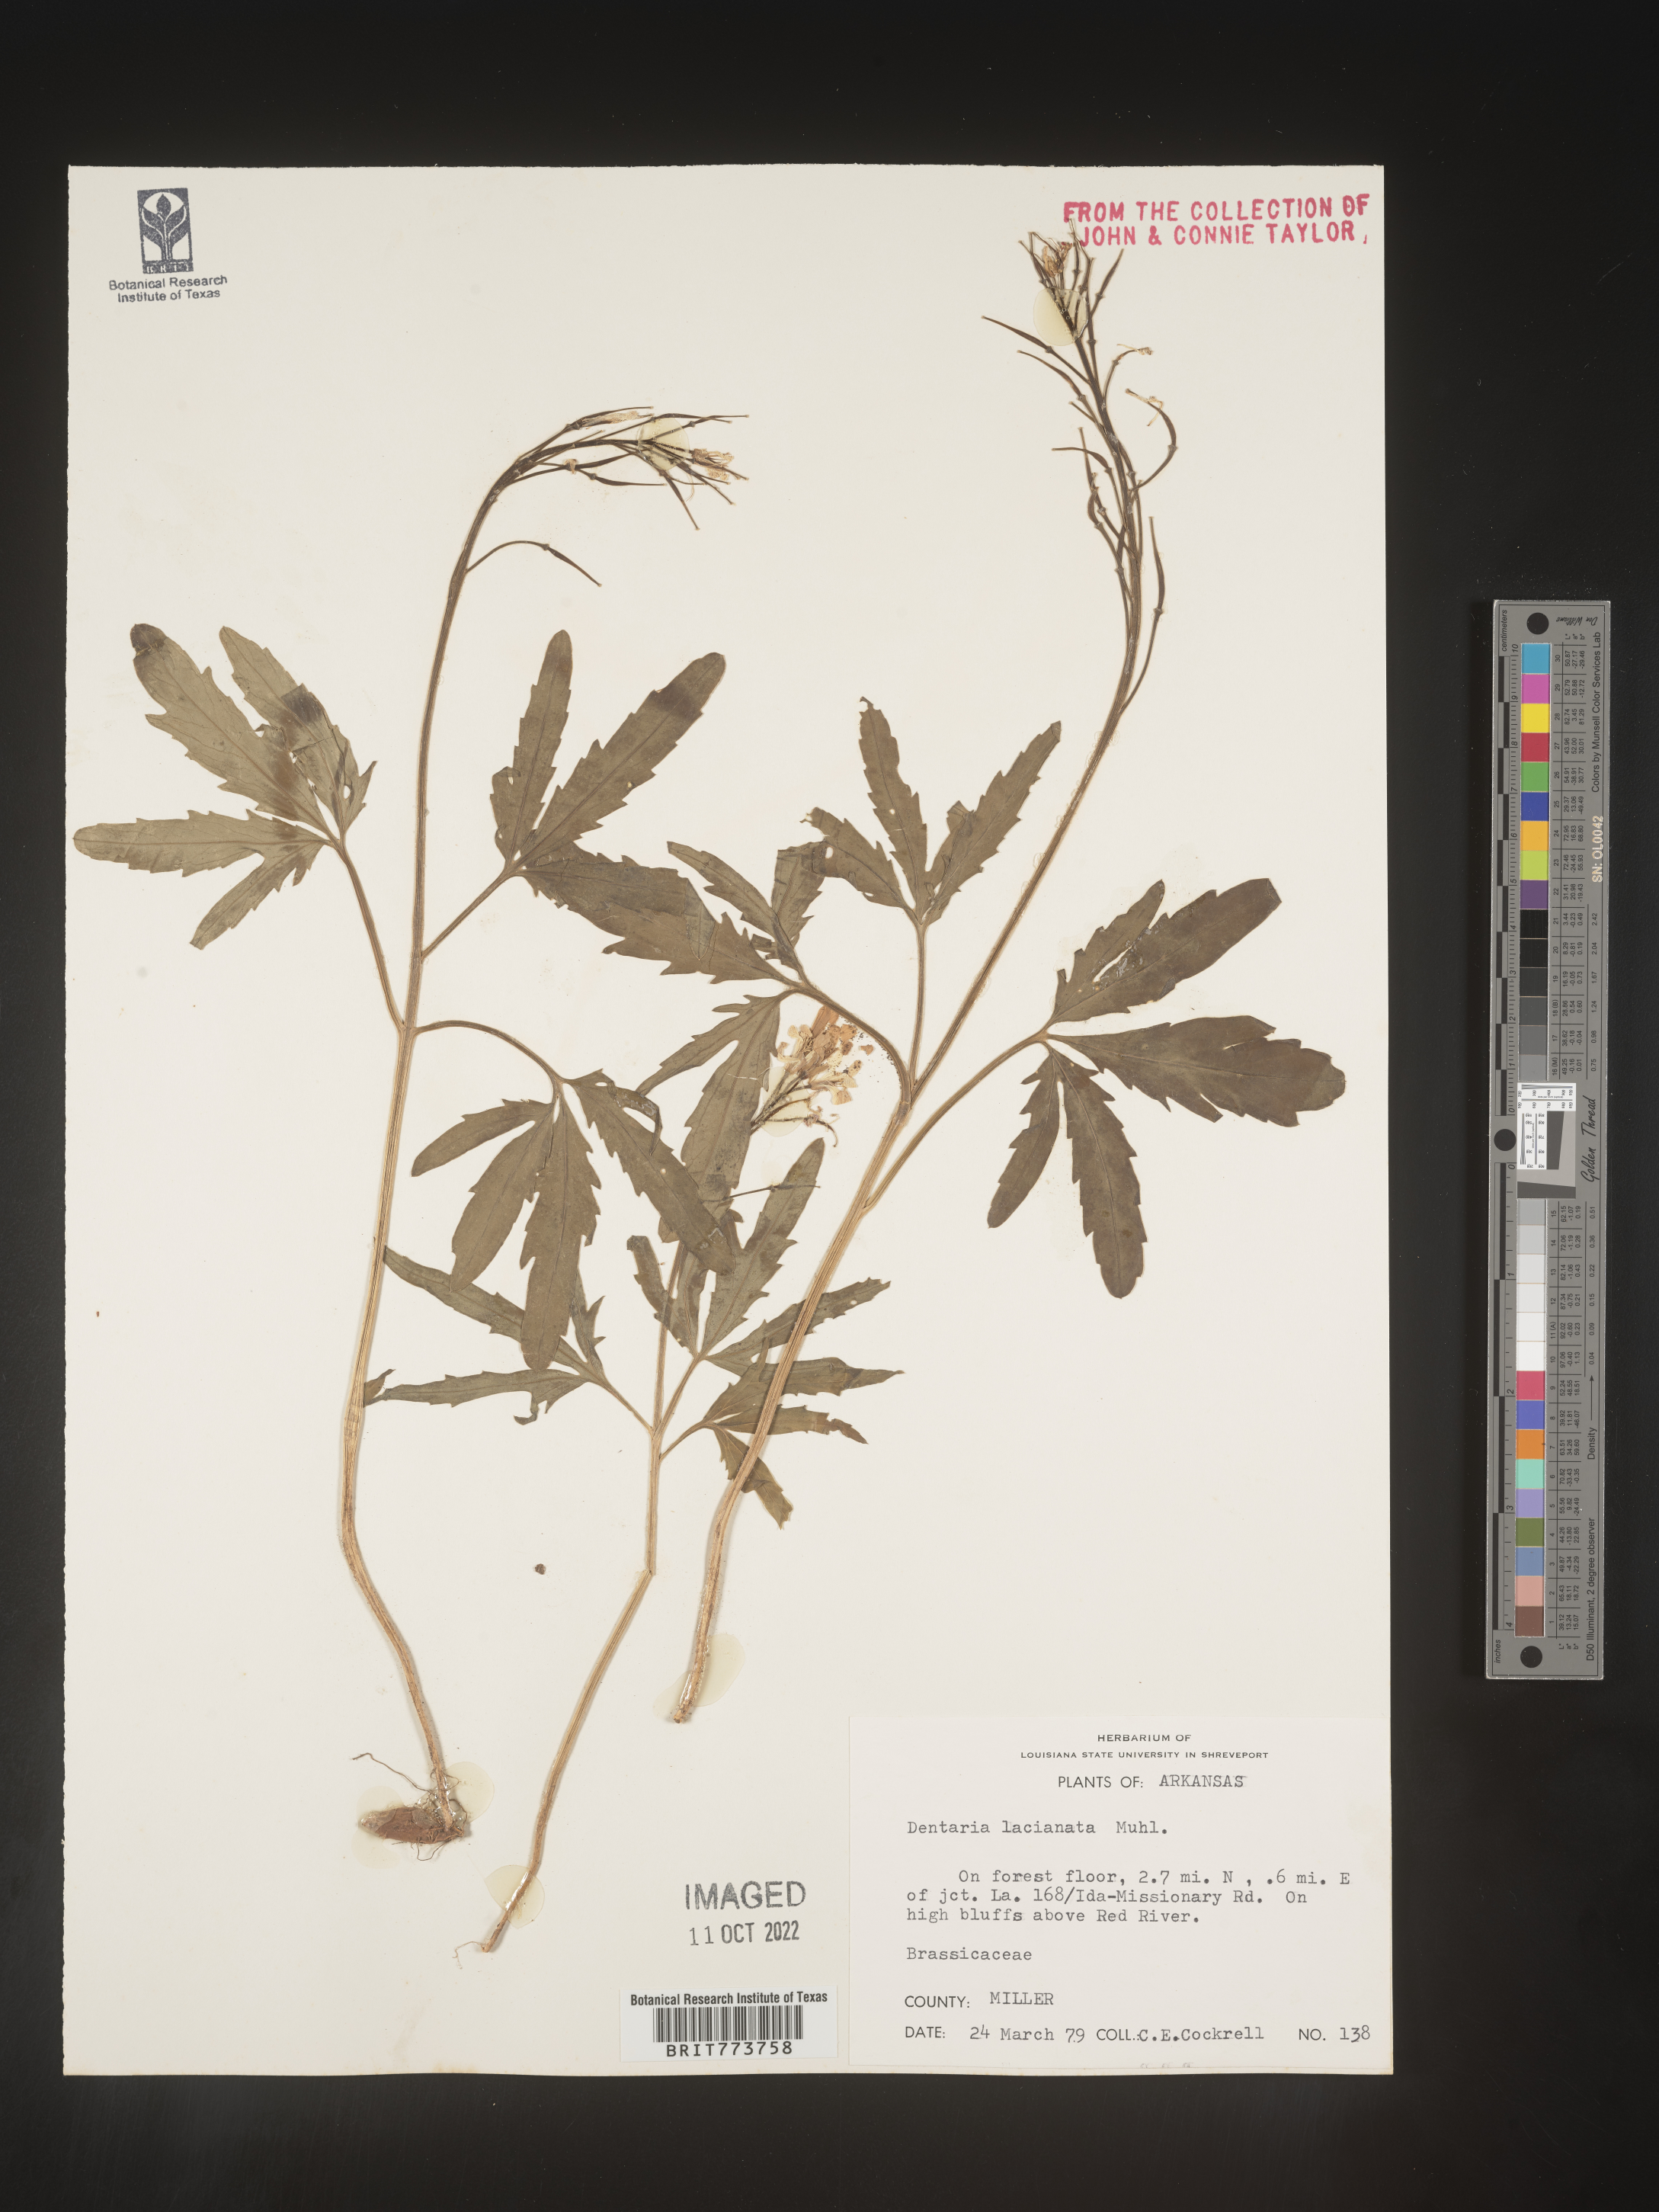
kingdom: Plantae
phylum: Tracheophyta
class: Magnoliopsida
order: Brassicales
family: Brassicaceae
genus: Rorippa
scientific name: Rorippa laciniata
